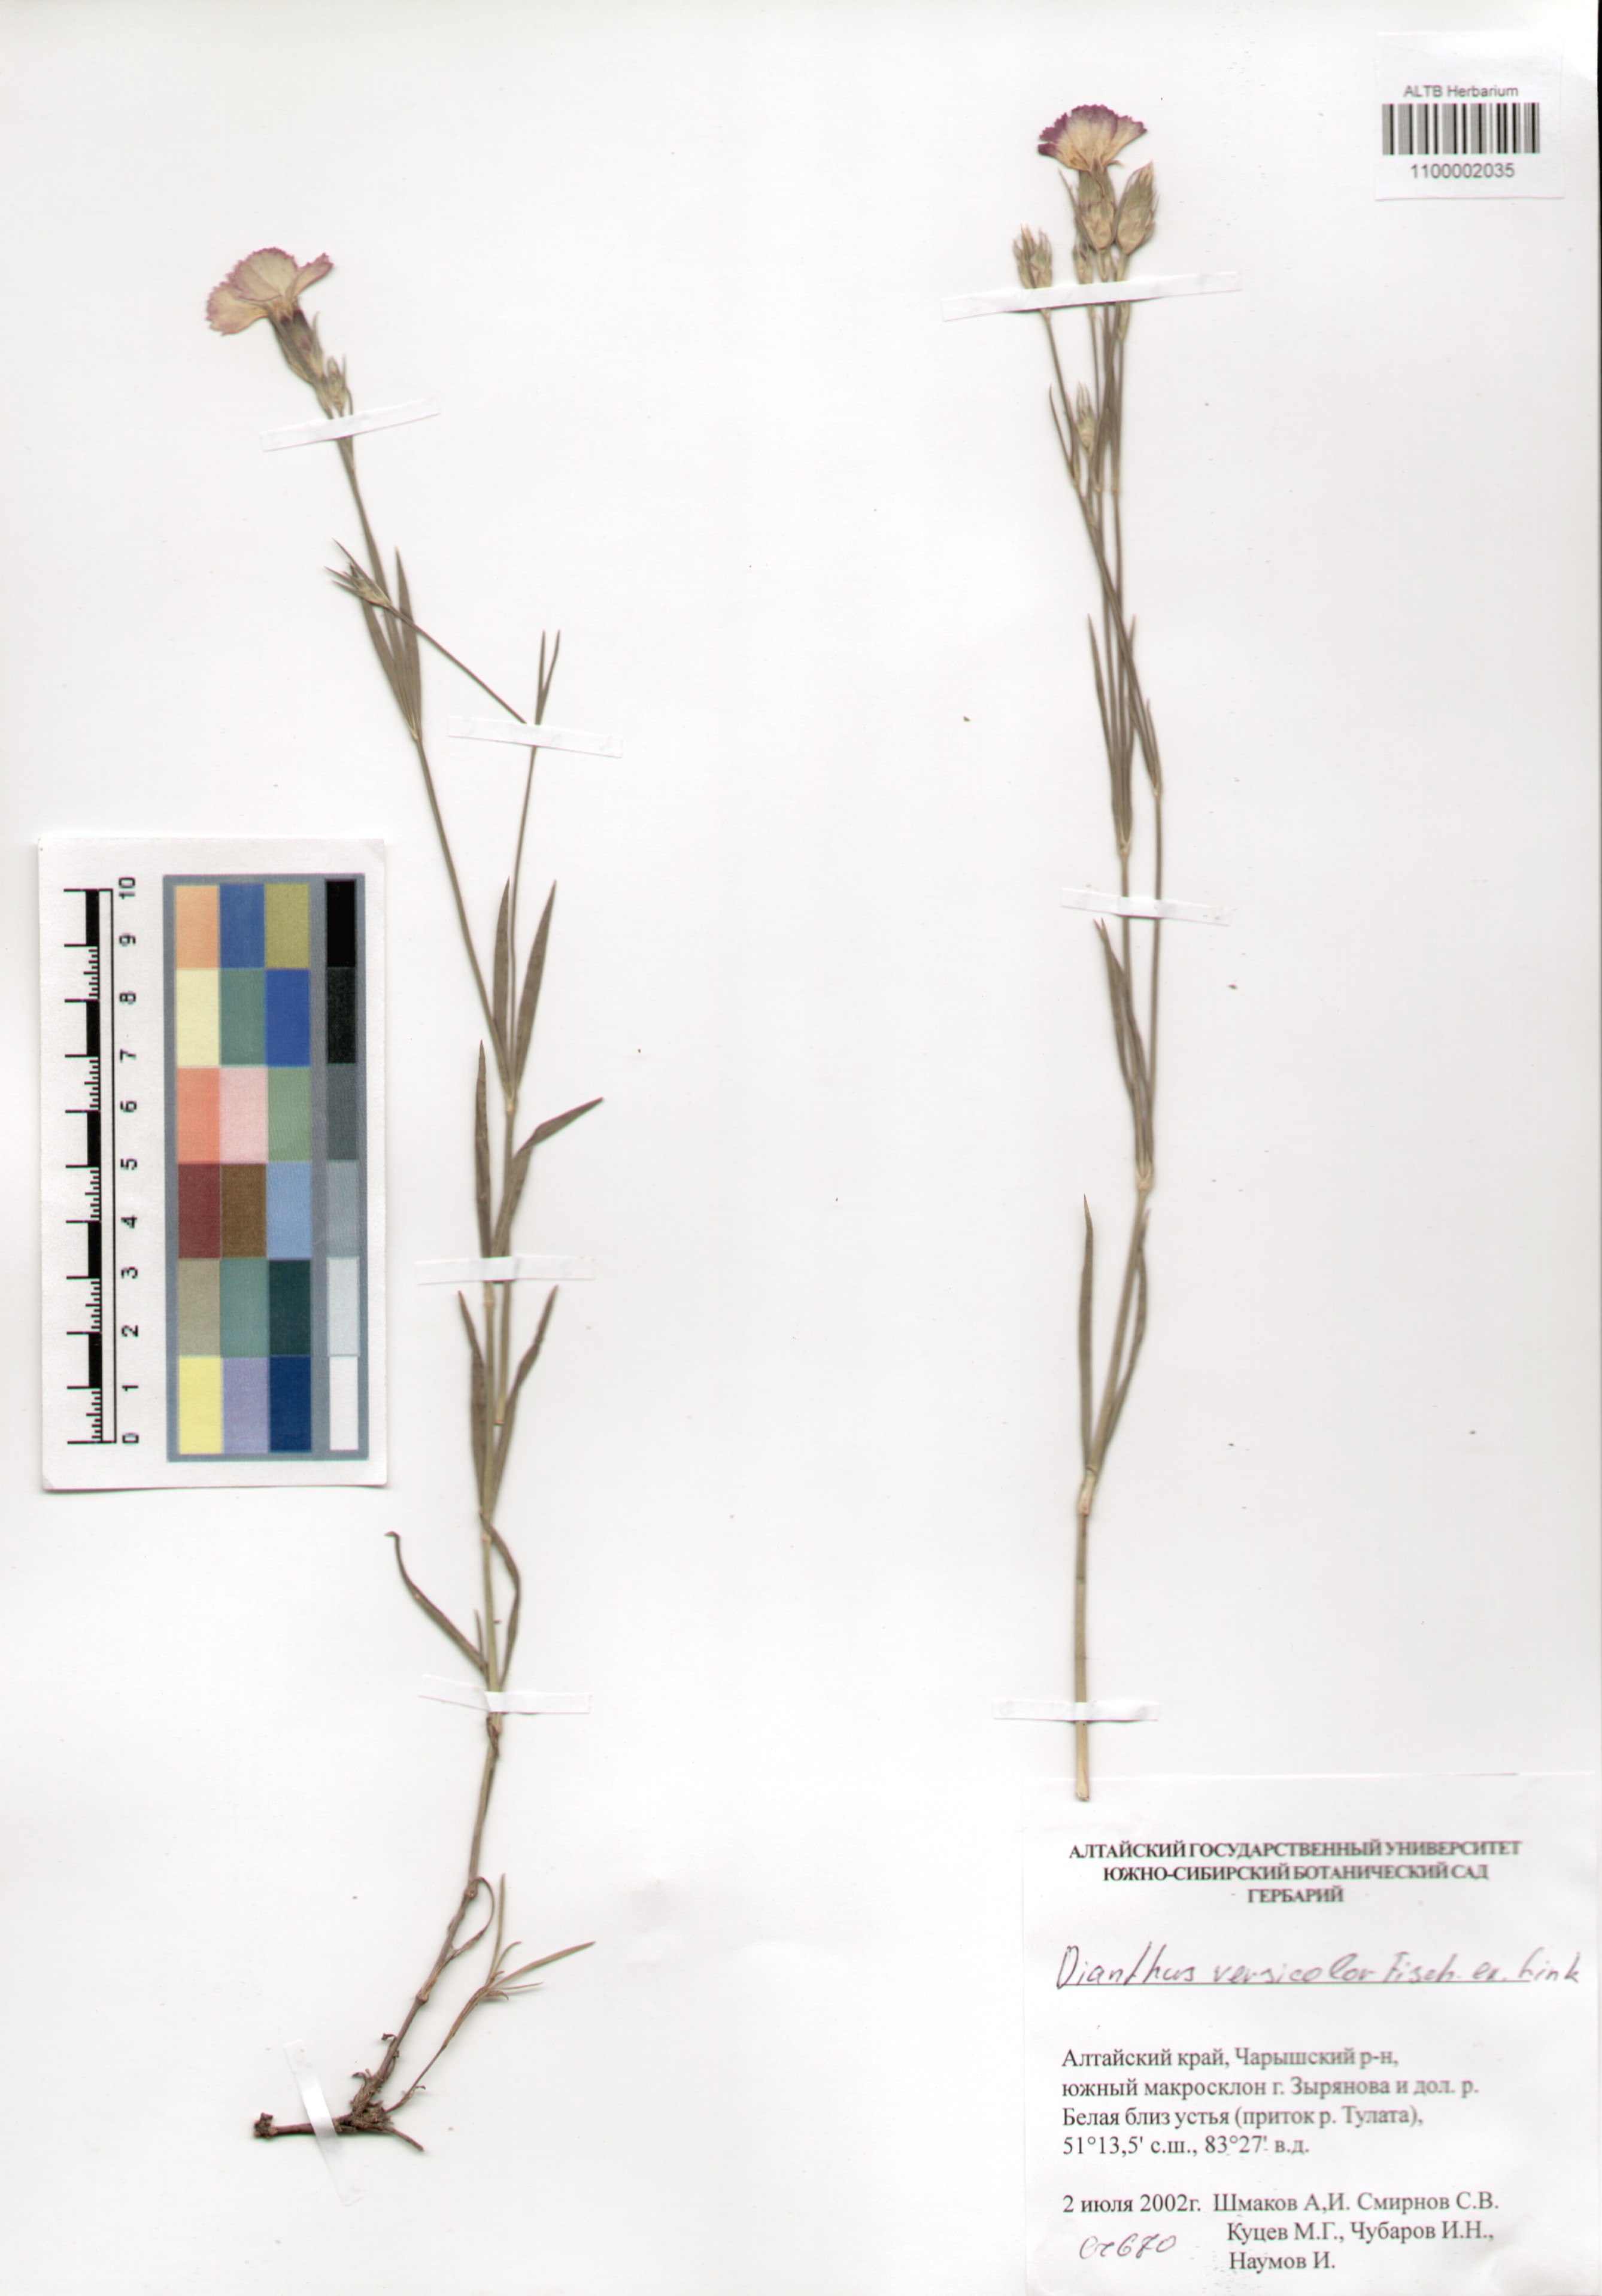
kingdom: Plantae
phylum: Tracheophyta
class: Magnoliopsida
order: Caryophyllales
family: Caryophyllaceae
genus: Dianthus
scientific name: Dianthus chinensis
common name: Rainbow pink
